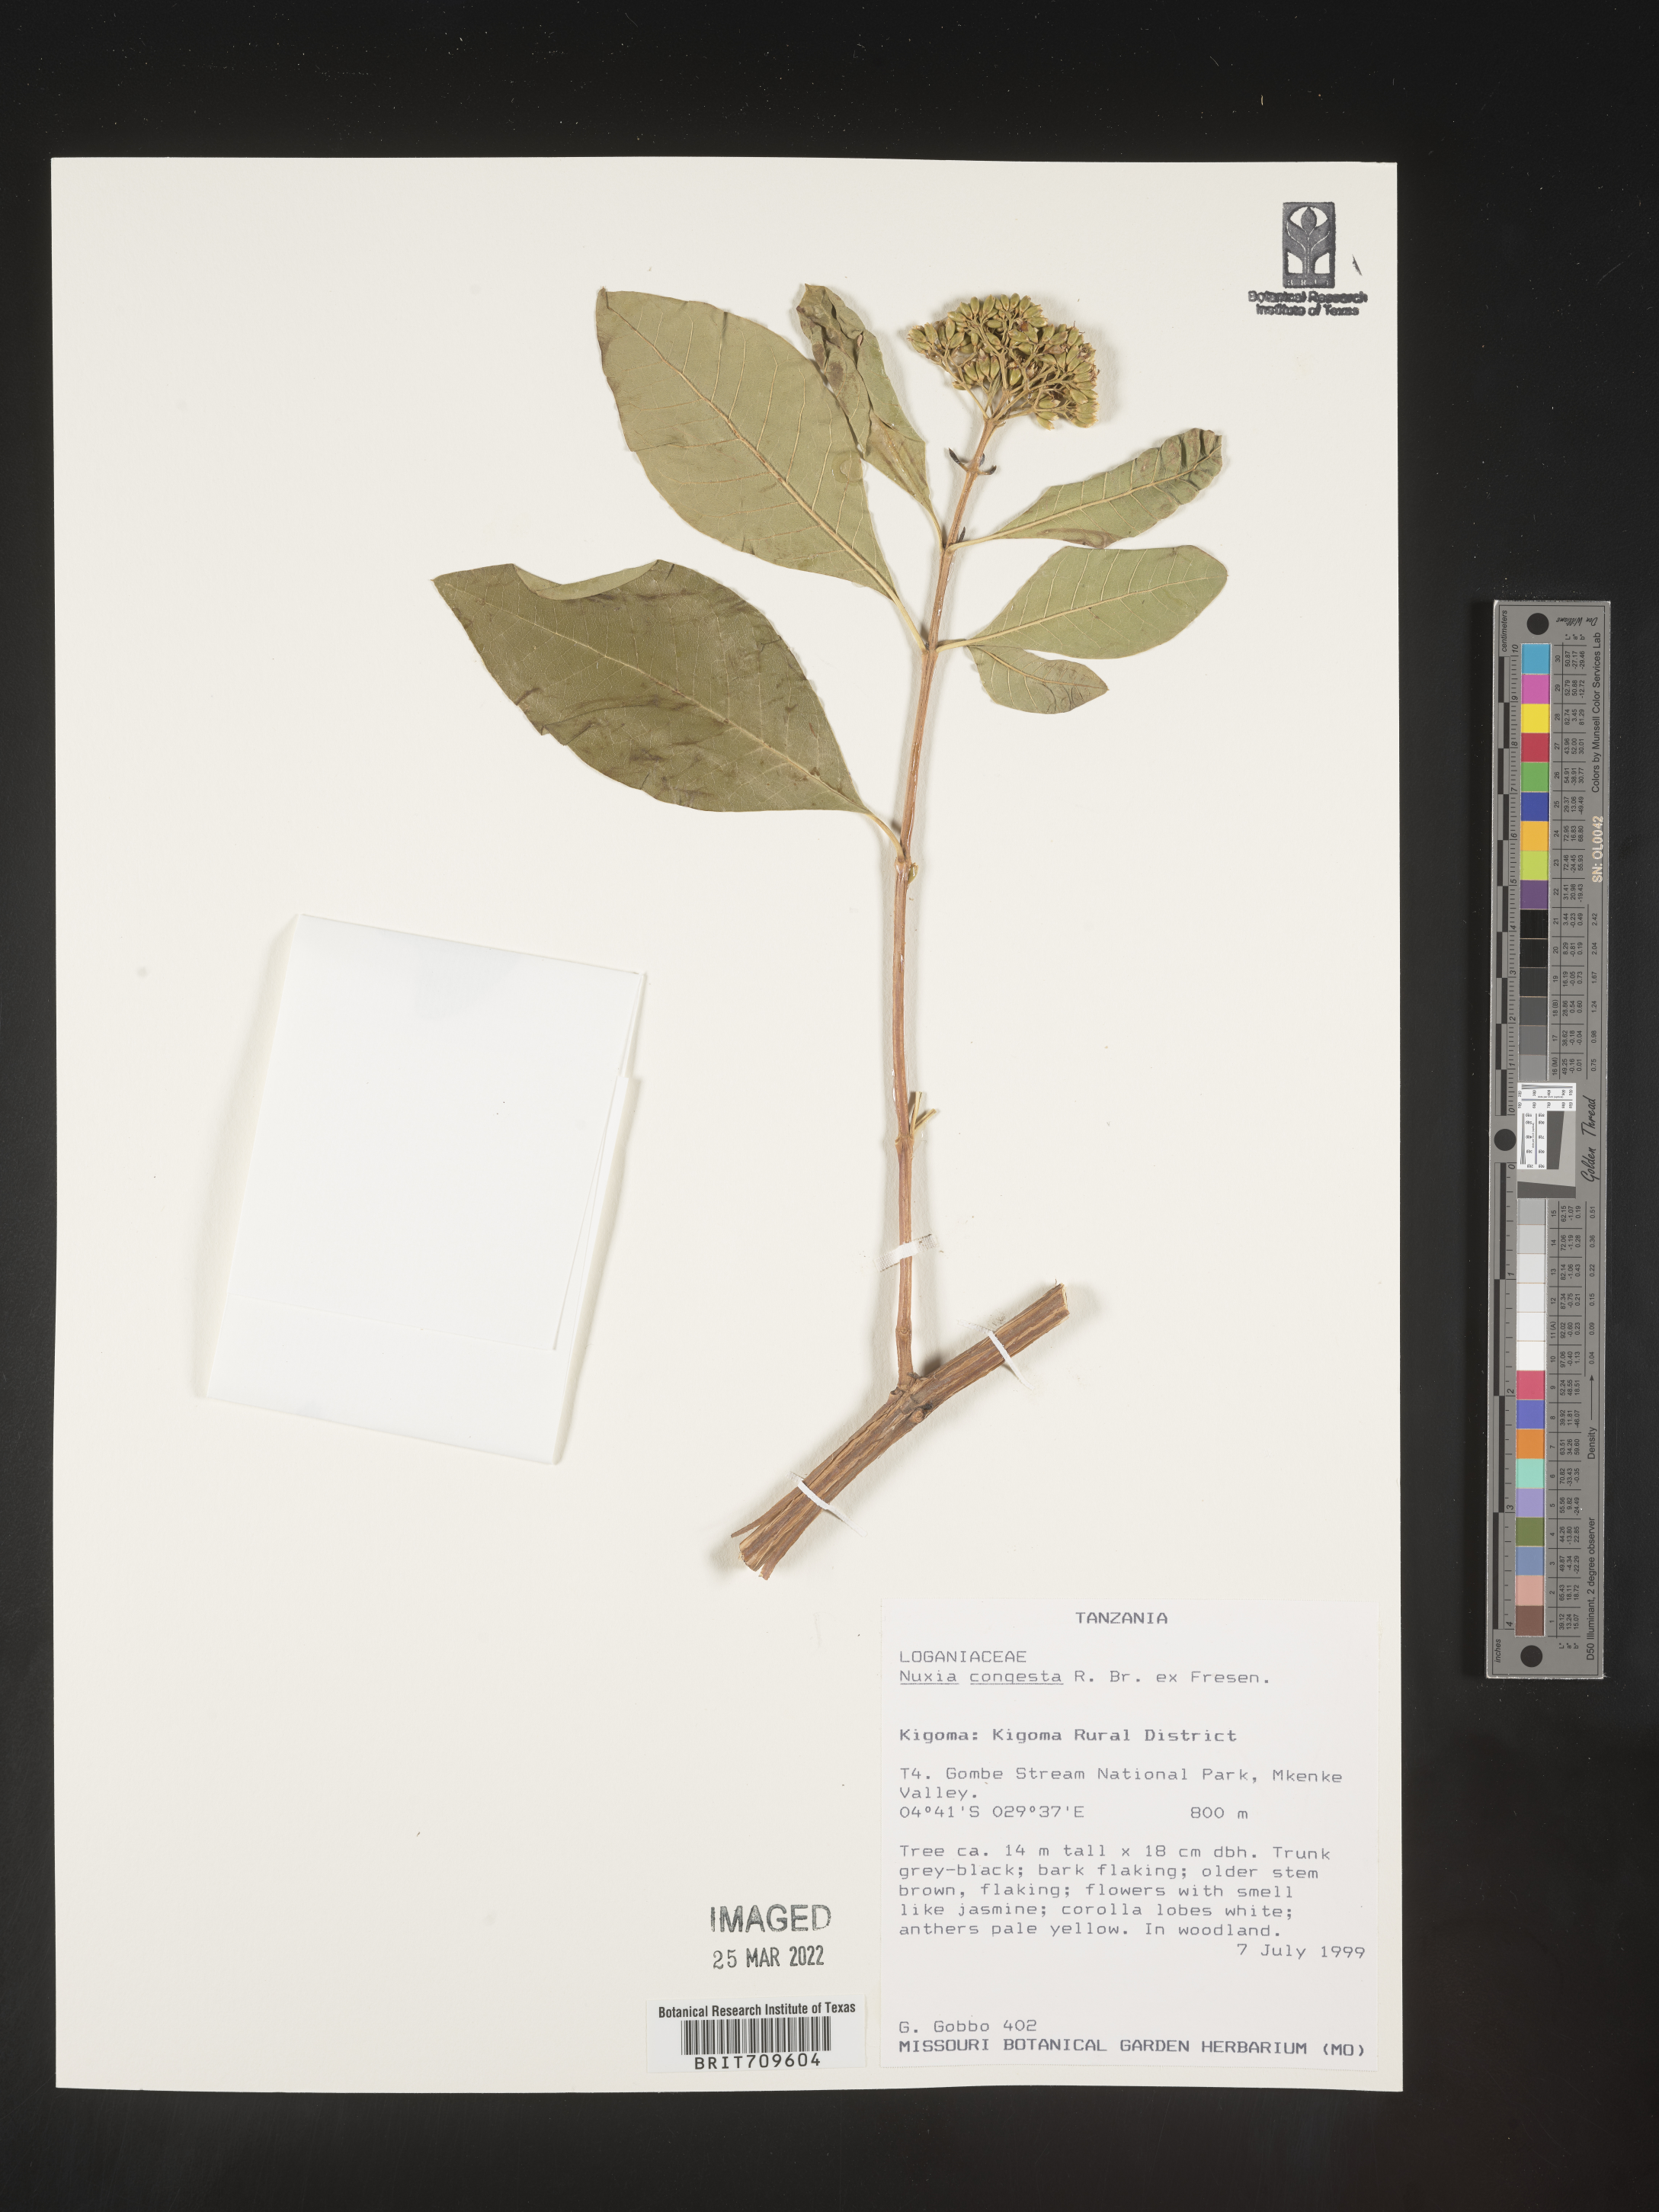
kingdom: Plantae
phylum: Tracheophyta
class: Magnoliopsida
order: Lamiales
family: Stilbaceae
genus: Nuxia
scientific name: Nuxia
